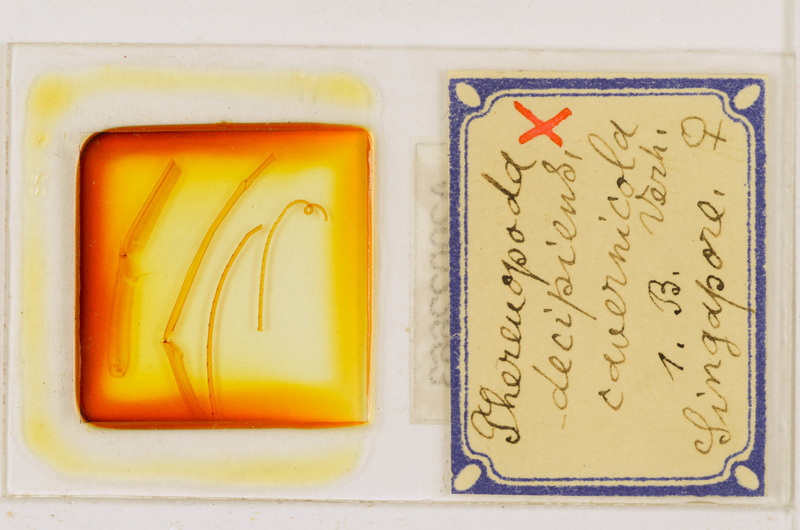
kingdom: Animalia
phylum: Arthropoda
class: Chilopoda
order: Scutigeromorpha
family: Scutigeridae
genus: Thereuopoda
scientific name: Thereuopoda longicornis
